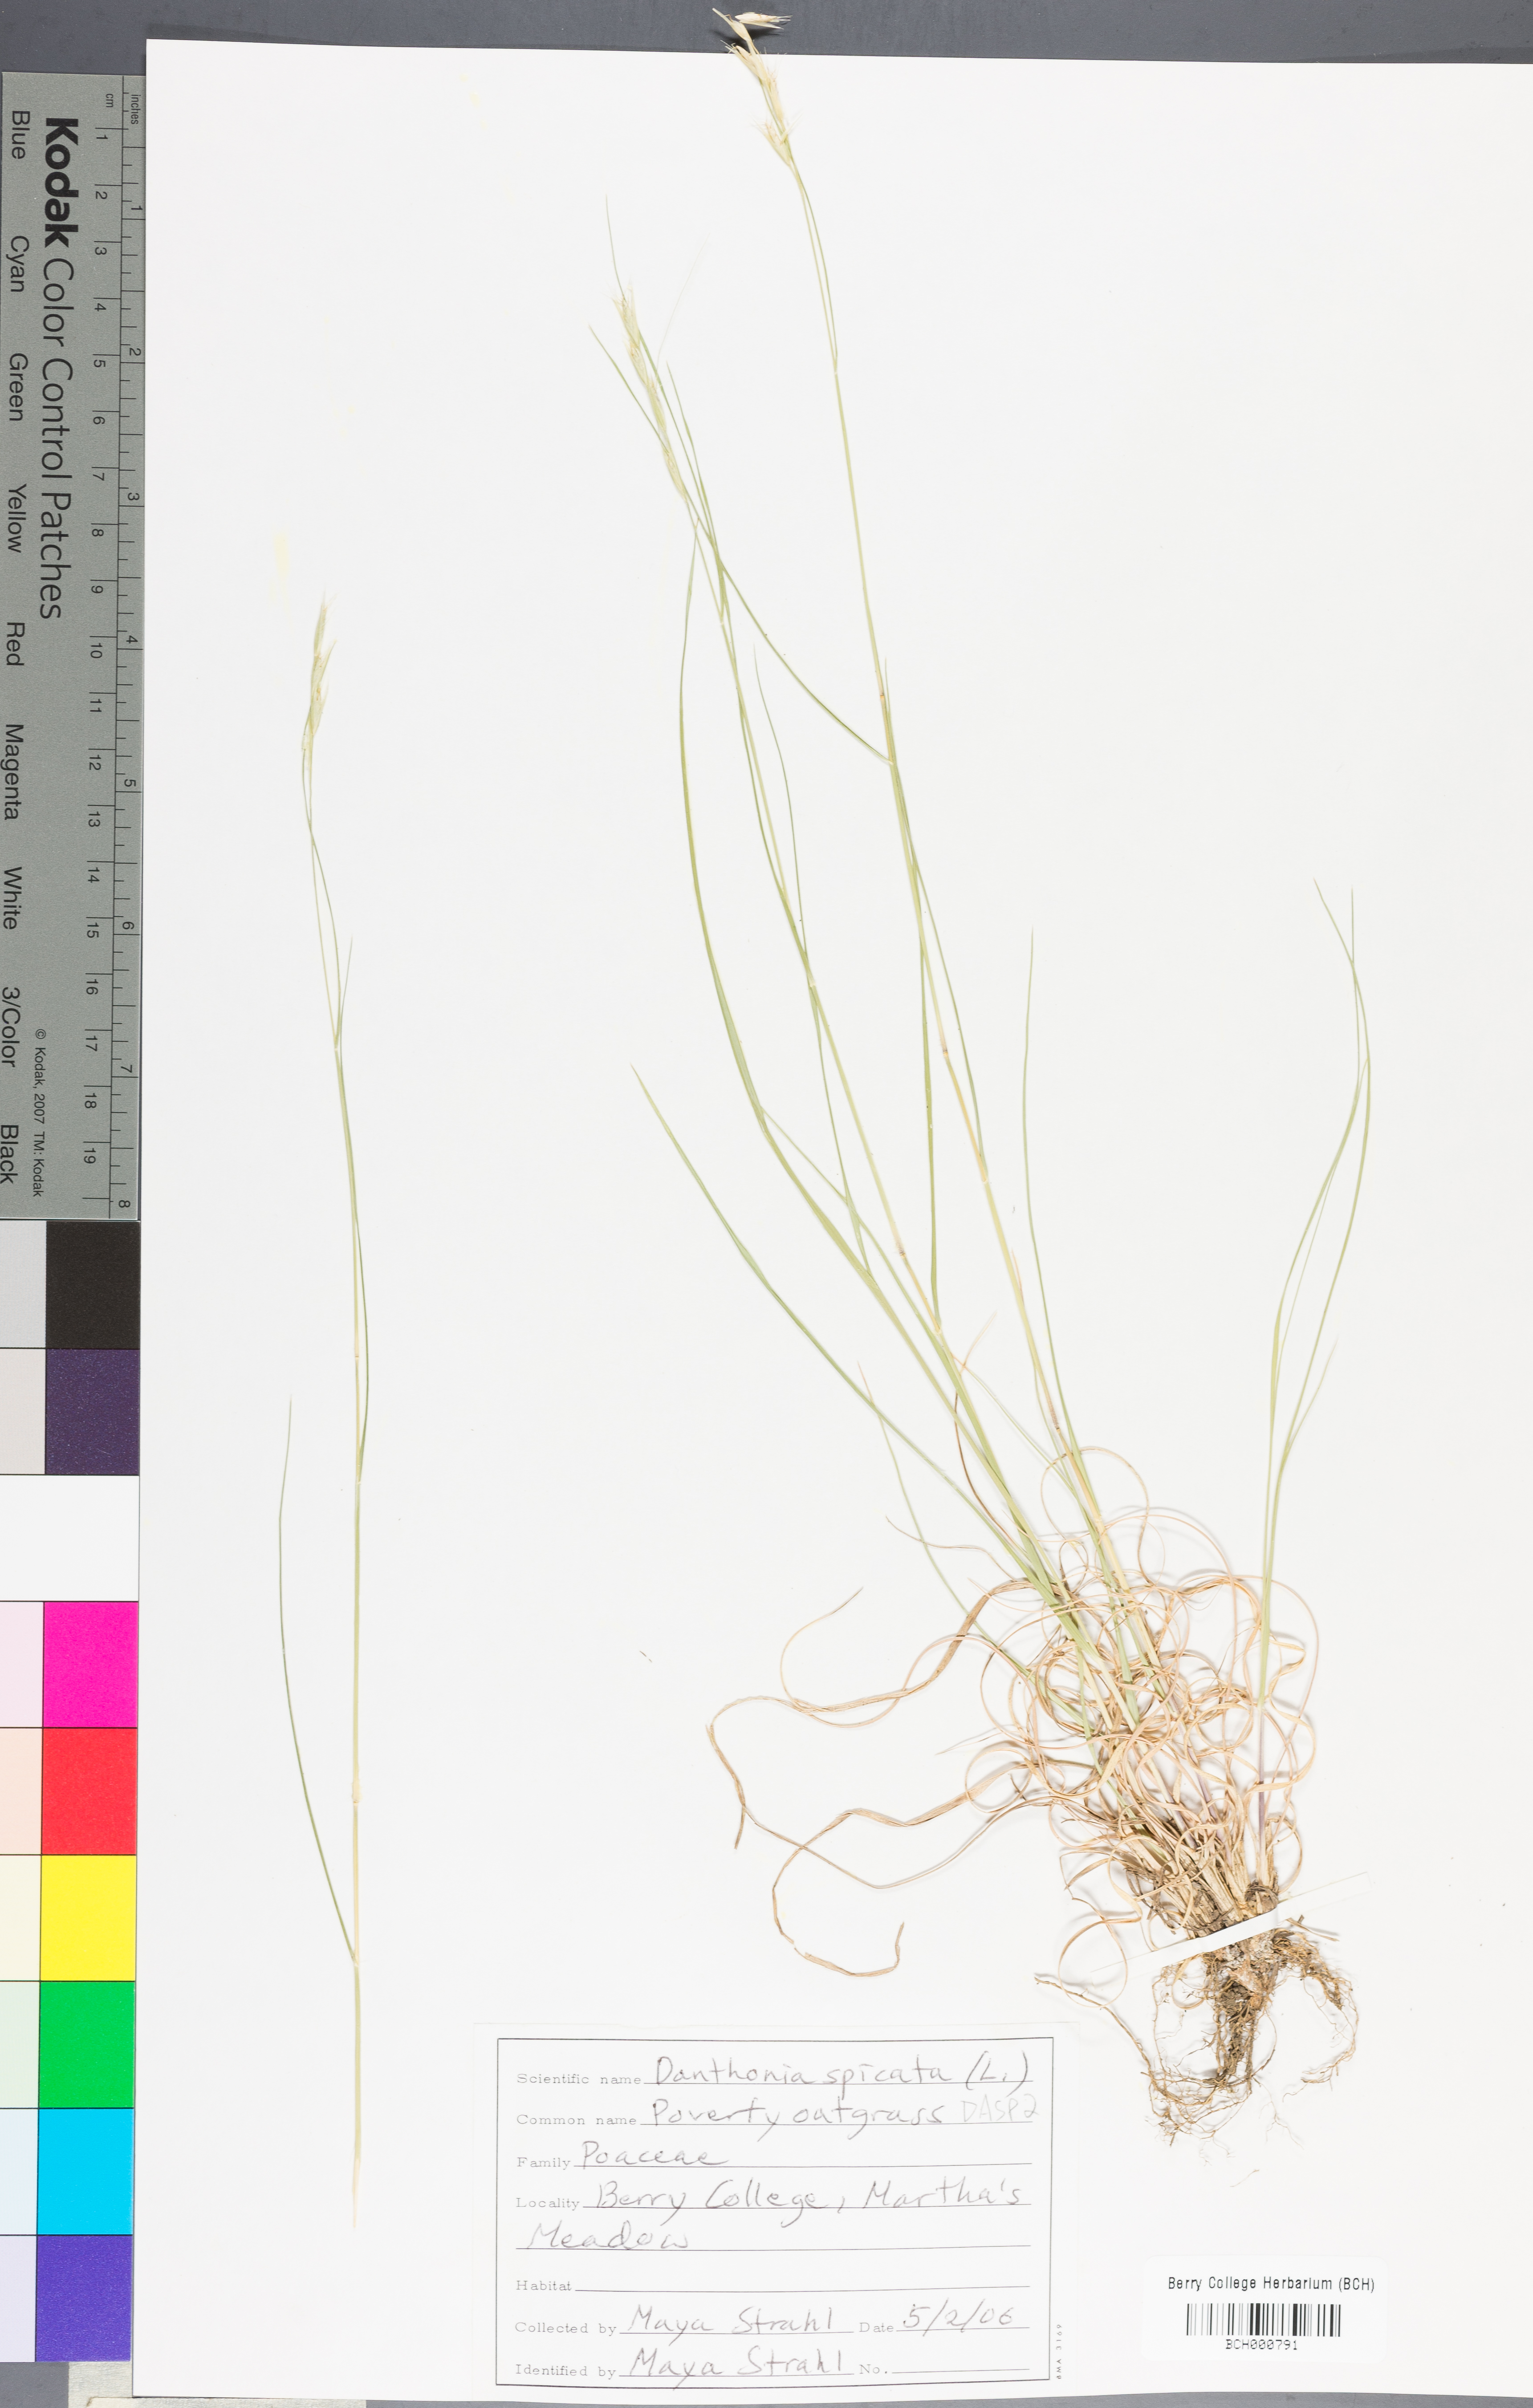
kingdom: Plantae
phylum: Tracheophyta
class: Liliopsida
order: Poales
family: Poaceae
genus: Danthonia
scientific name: Danthonia spicata
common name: Common wild oatgrass
